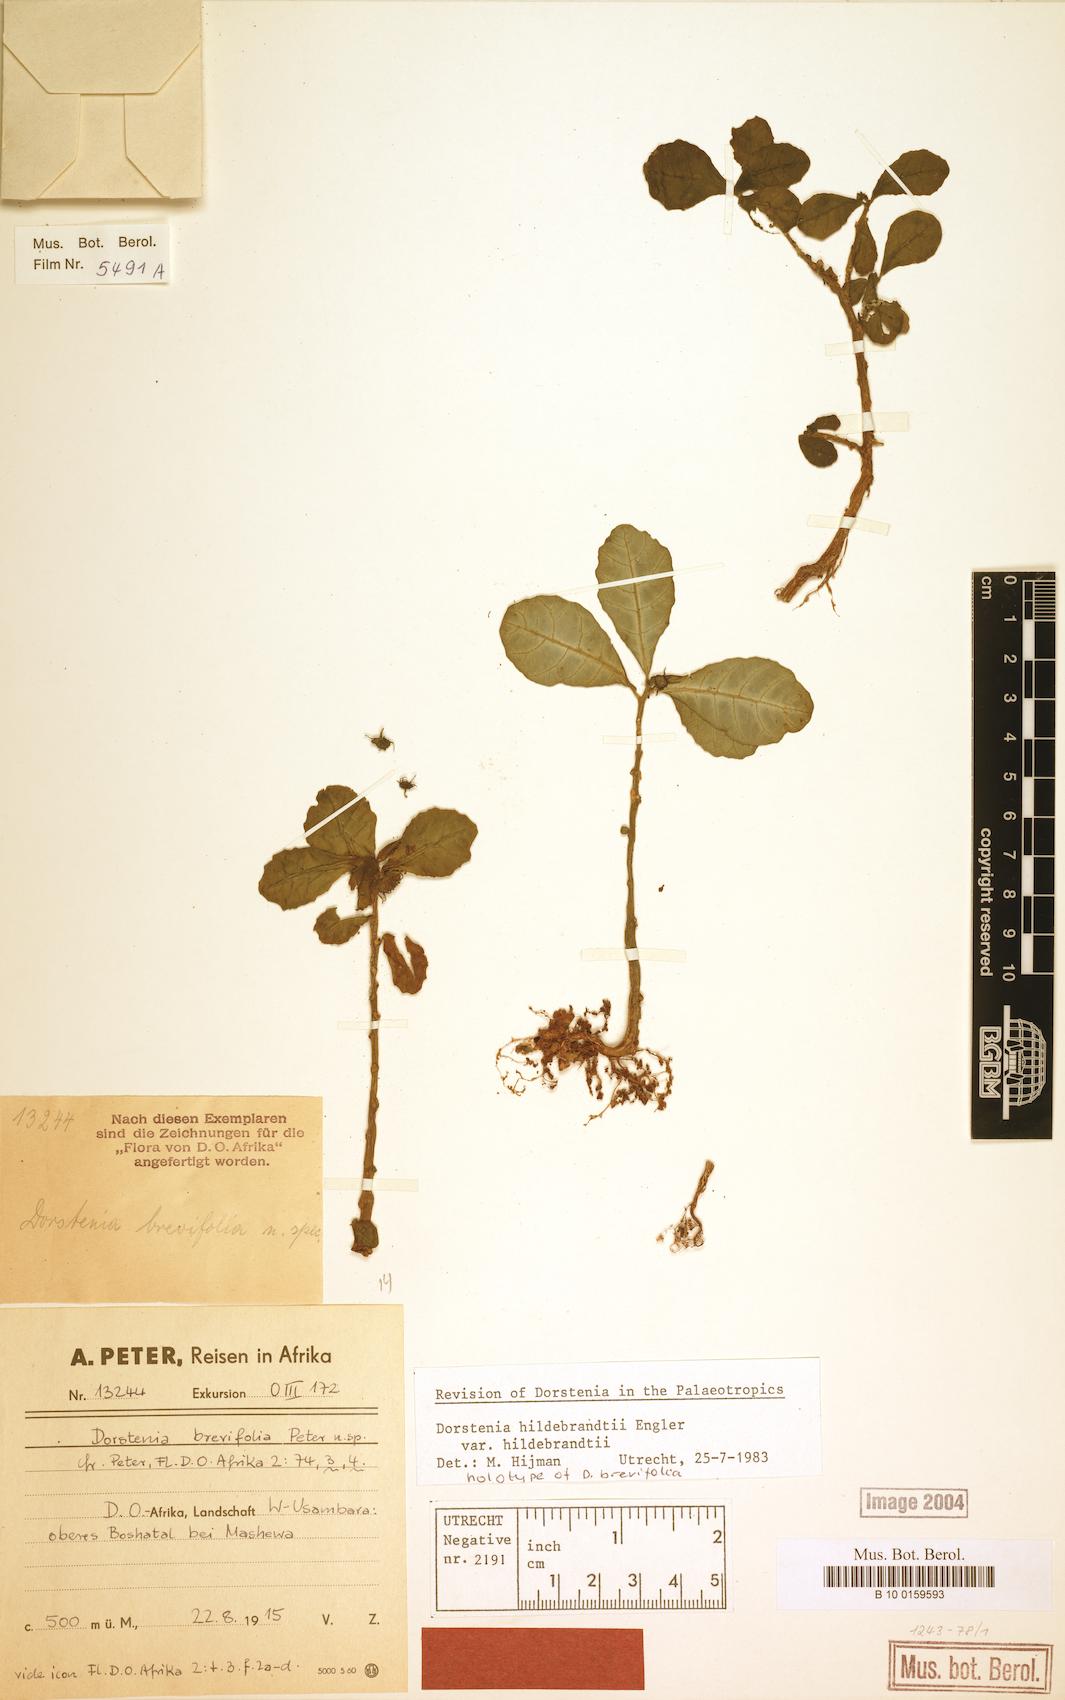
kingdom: Plantae
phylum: Tracheophyta
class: Magnoliopsida
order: Rosales
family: Moraceae
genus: Dorstenia
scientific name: Dorstenia hildebrandtii
